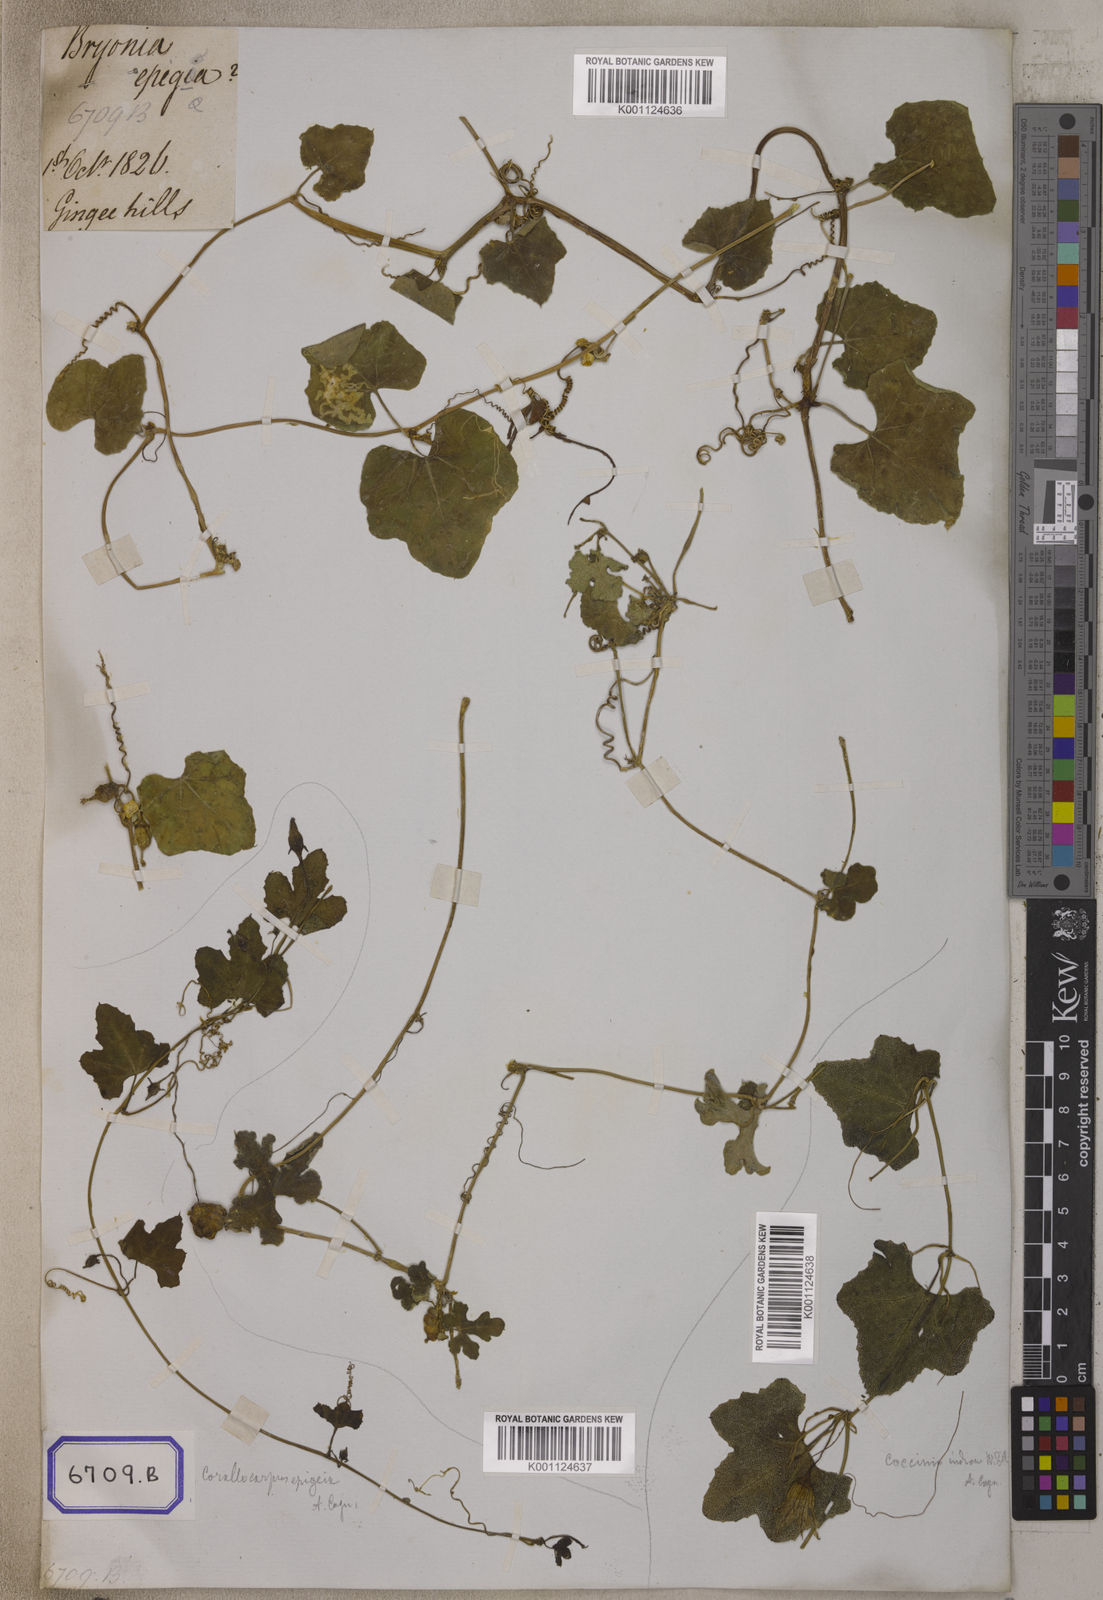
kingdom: Plantae
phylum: Tracheophyta
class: Magnoliopsida
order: Cucurbitales
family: Cucurbitaceae
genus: Corallocarpus
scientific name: Corallocarpus epigaeus
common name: Indian bryonia
